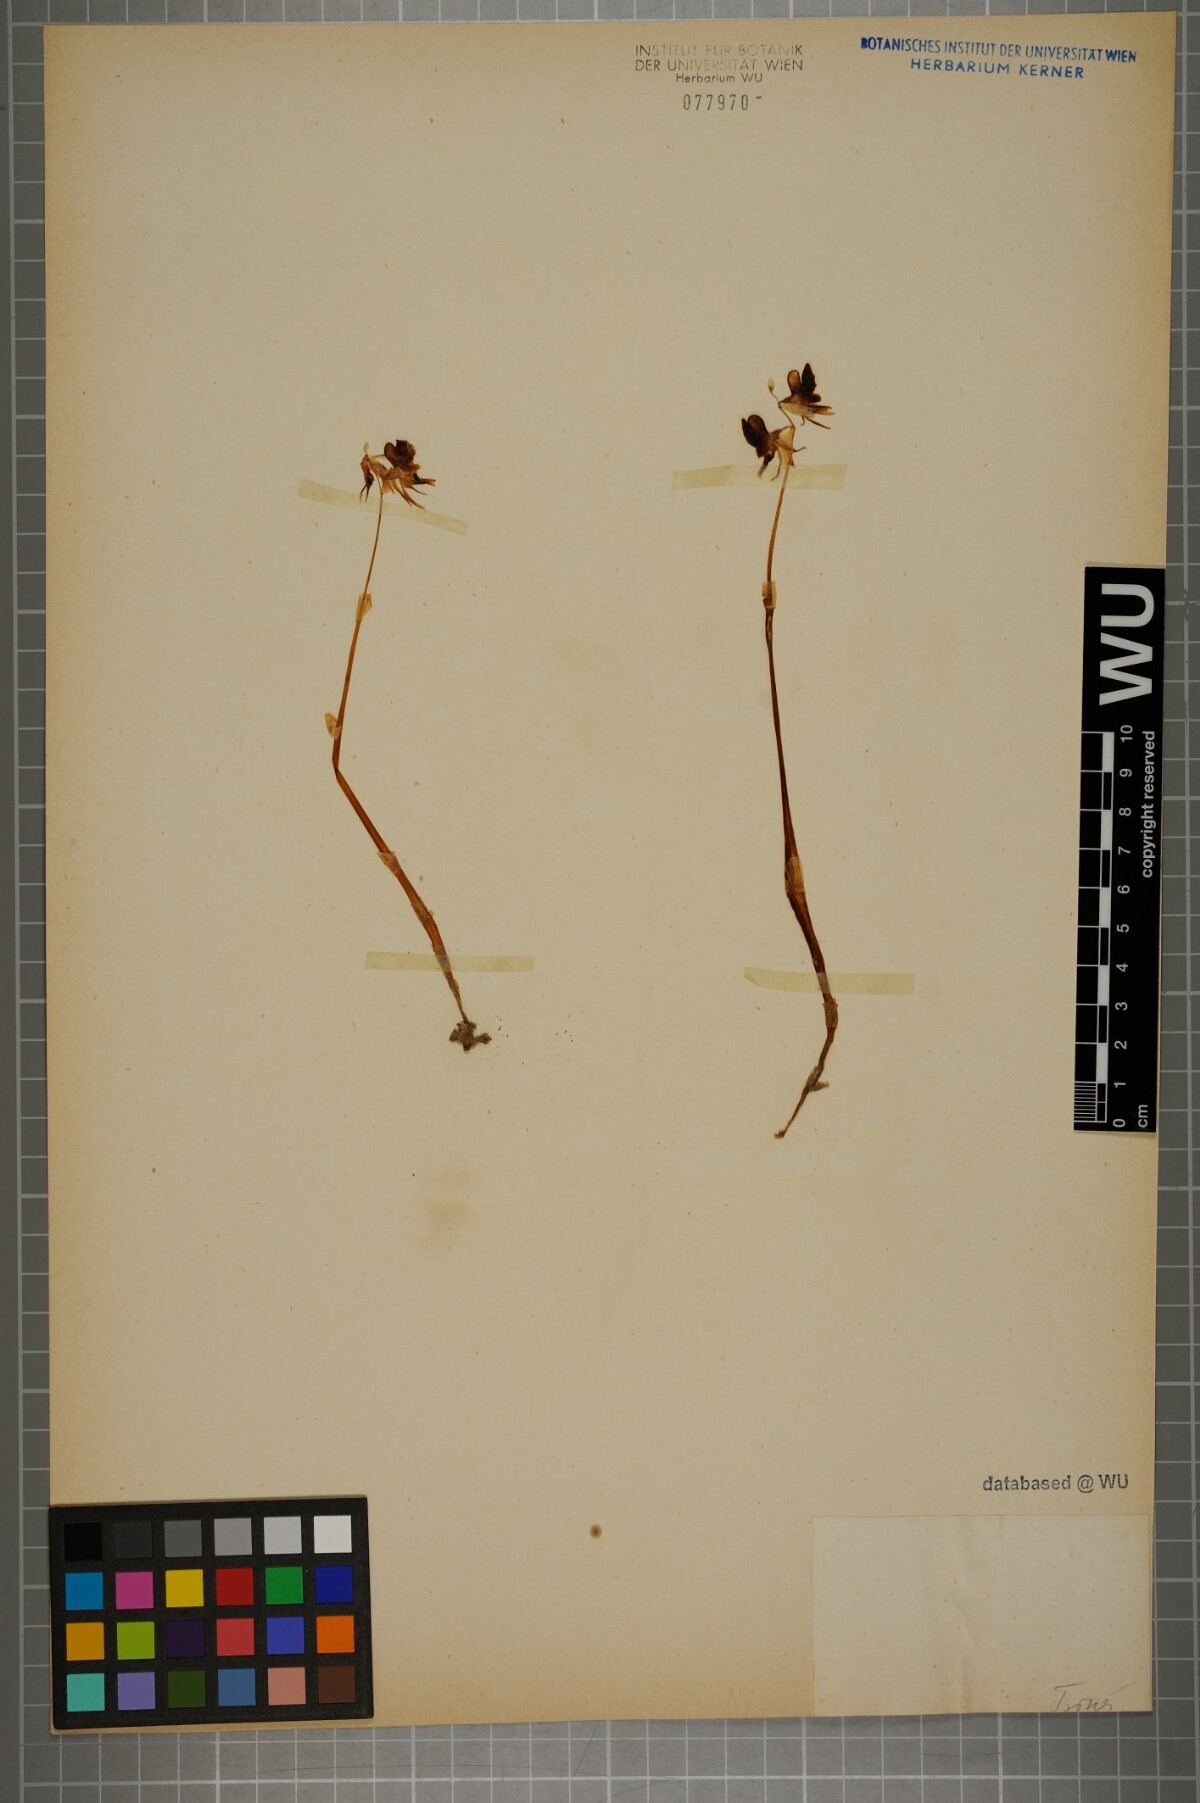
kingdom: Plantae
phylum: Tracheophyta
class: Liliopsida
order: Asparagales
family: Orchidaceae
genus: Epipogium
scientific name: Epipogium aphyllum
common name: Ghost orchid
